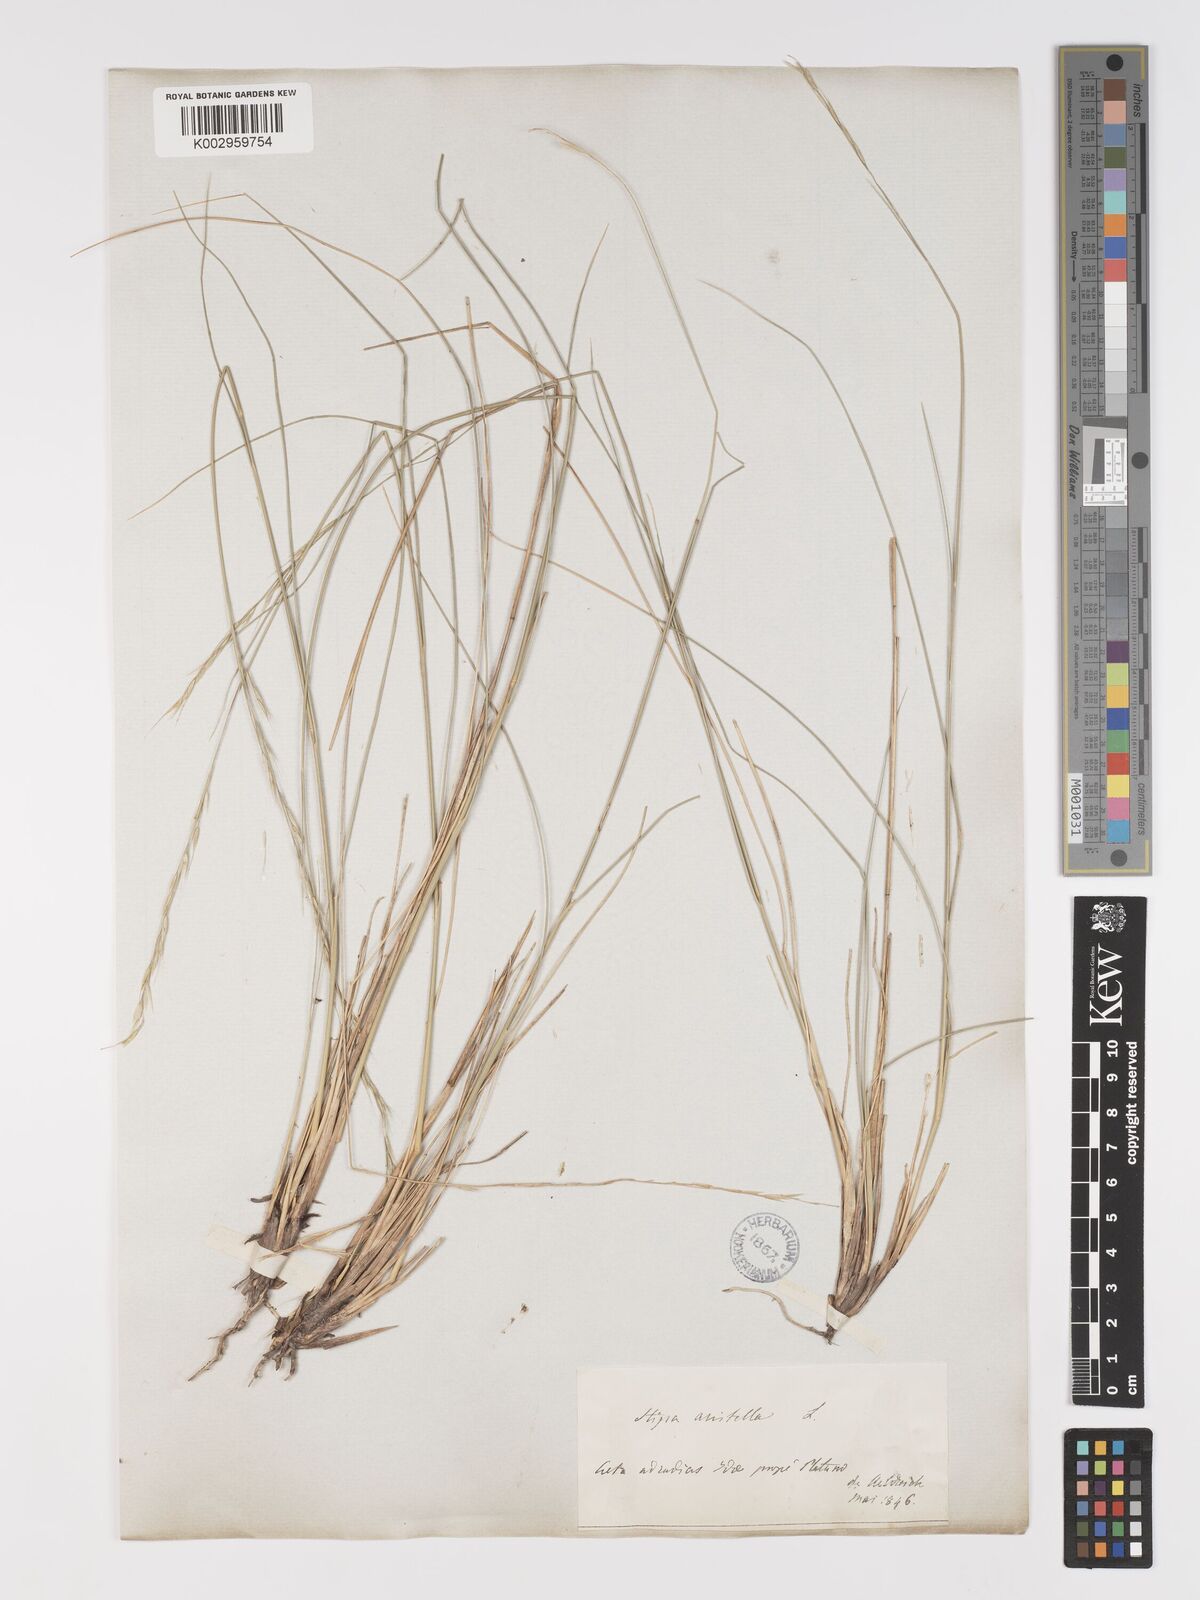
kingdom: Plantae
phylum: Tracheophyta
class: Liliopsida
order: Poales
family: Poaceae
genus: Achnatherum
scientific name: Achnatherum bromoides
